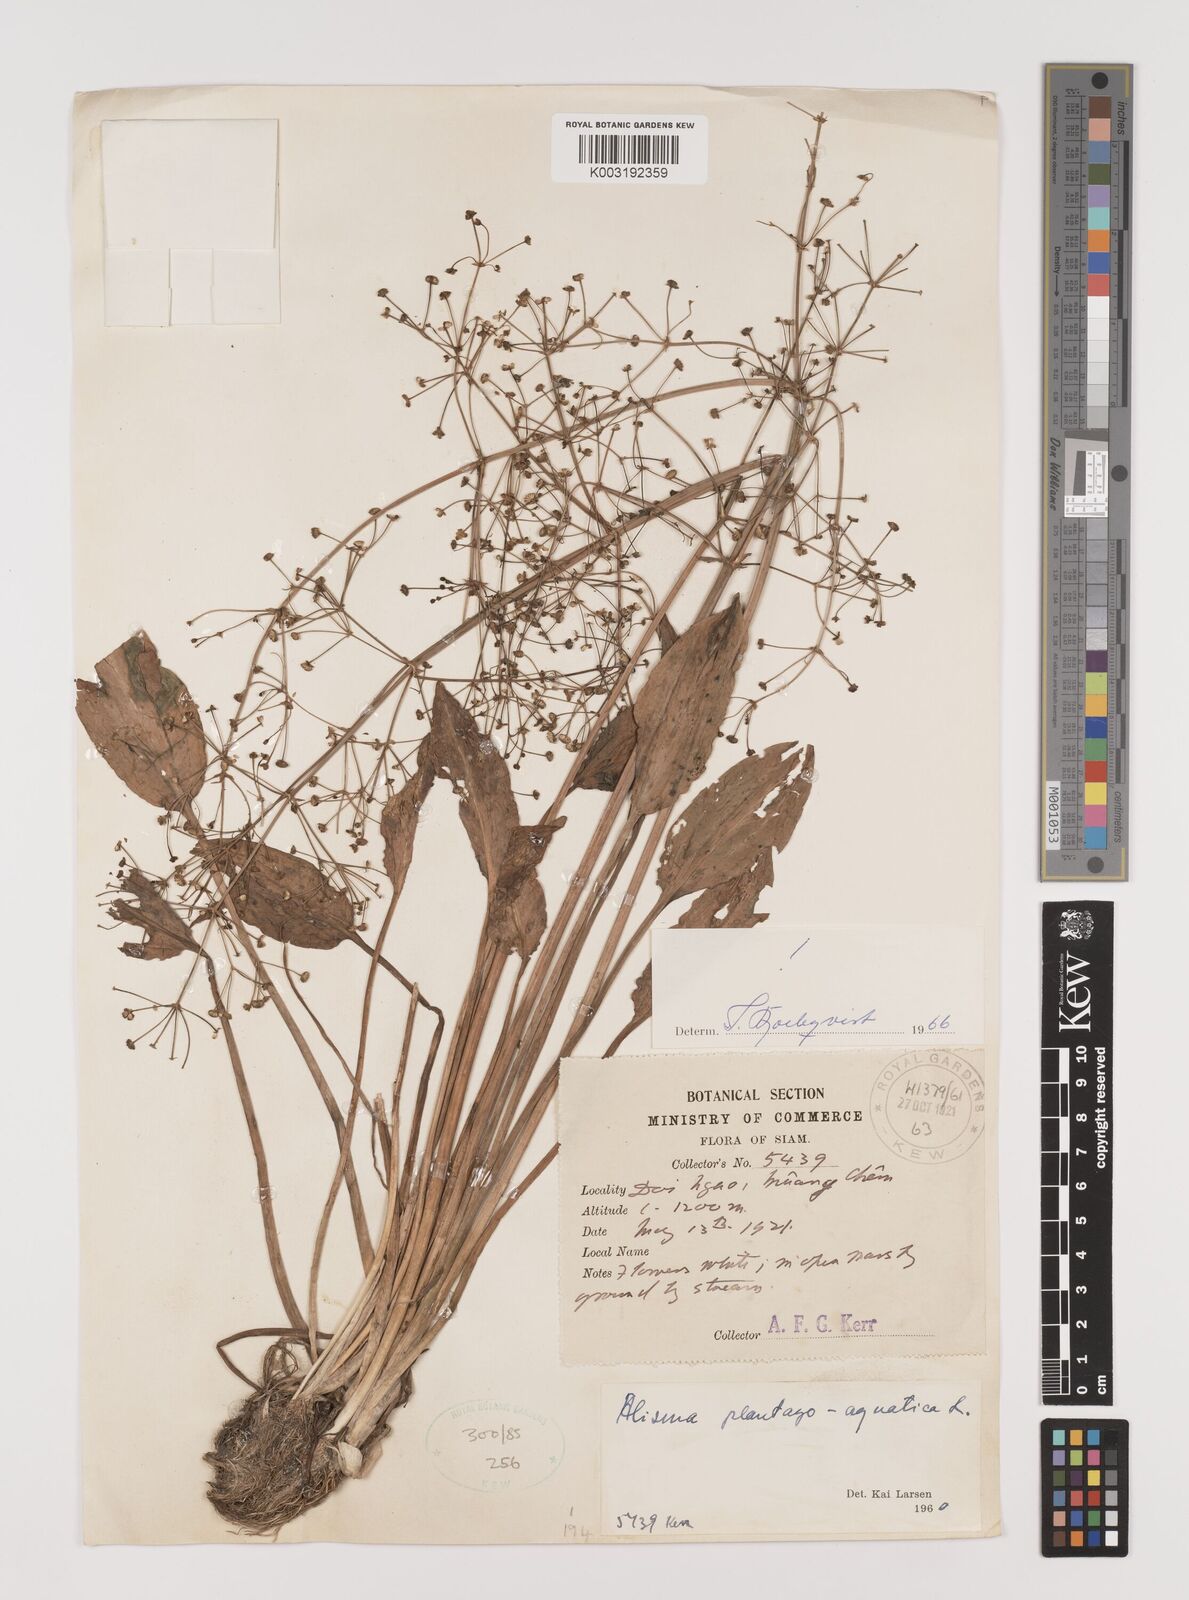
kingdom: Plantae
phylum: Tracheophyta
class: Liliopsida
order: Alismatales
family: Alismataceae
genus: Alisma
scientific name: Alisma plantago-aquatica
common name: Water-plantain
